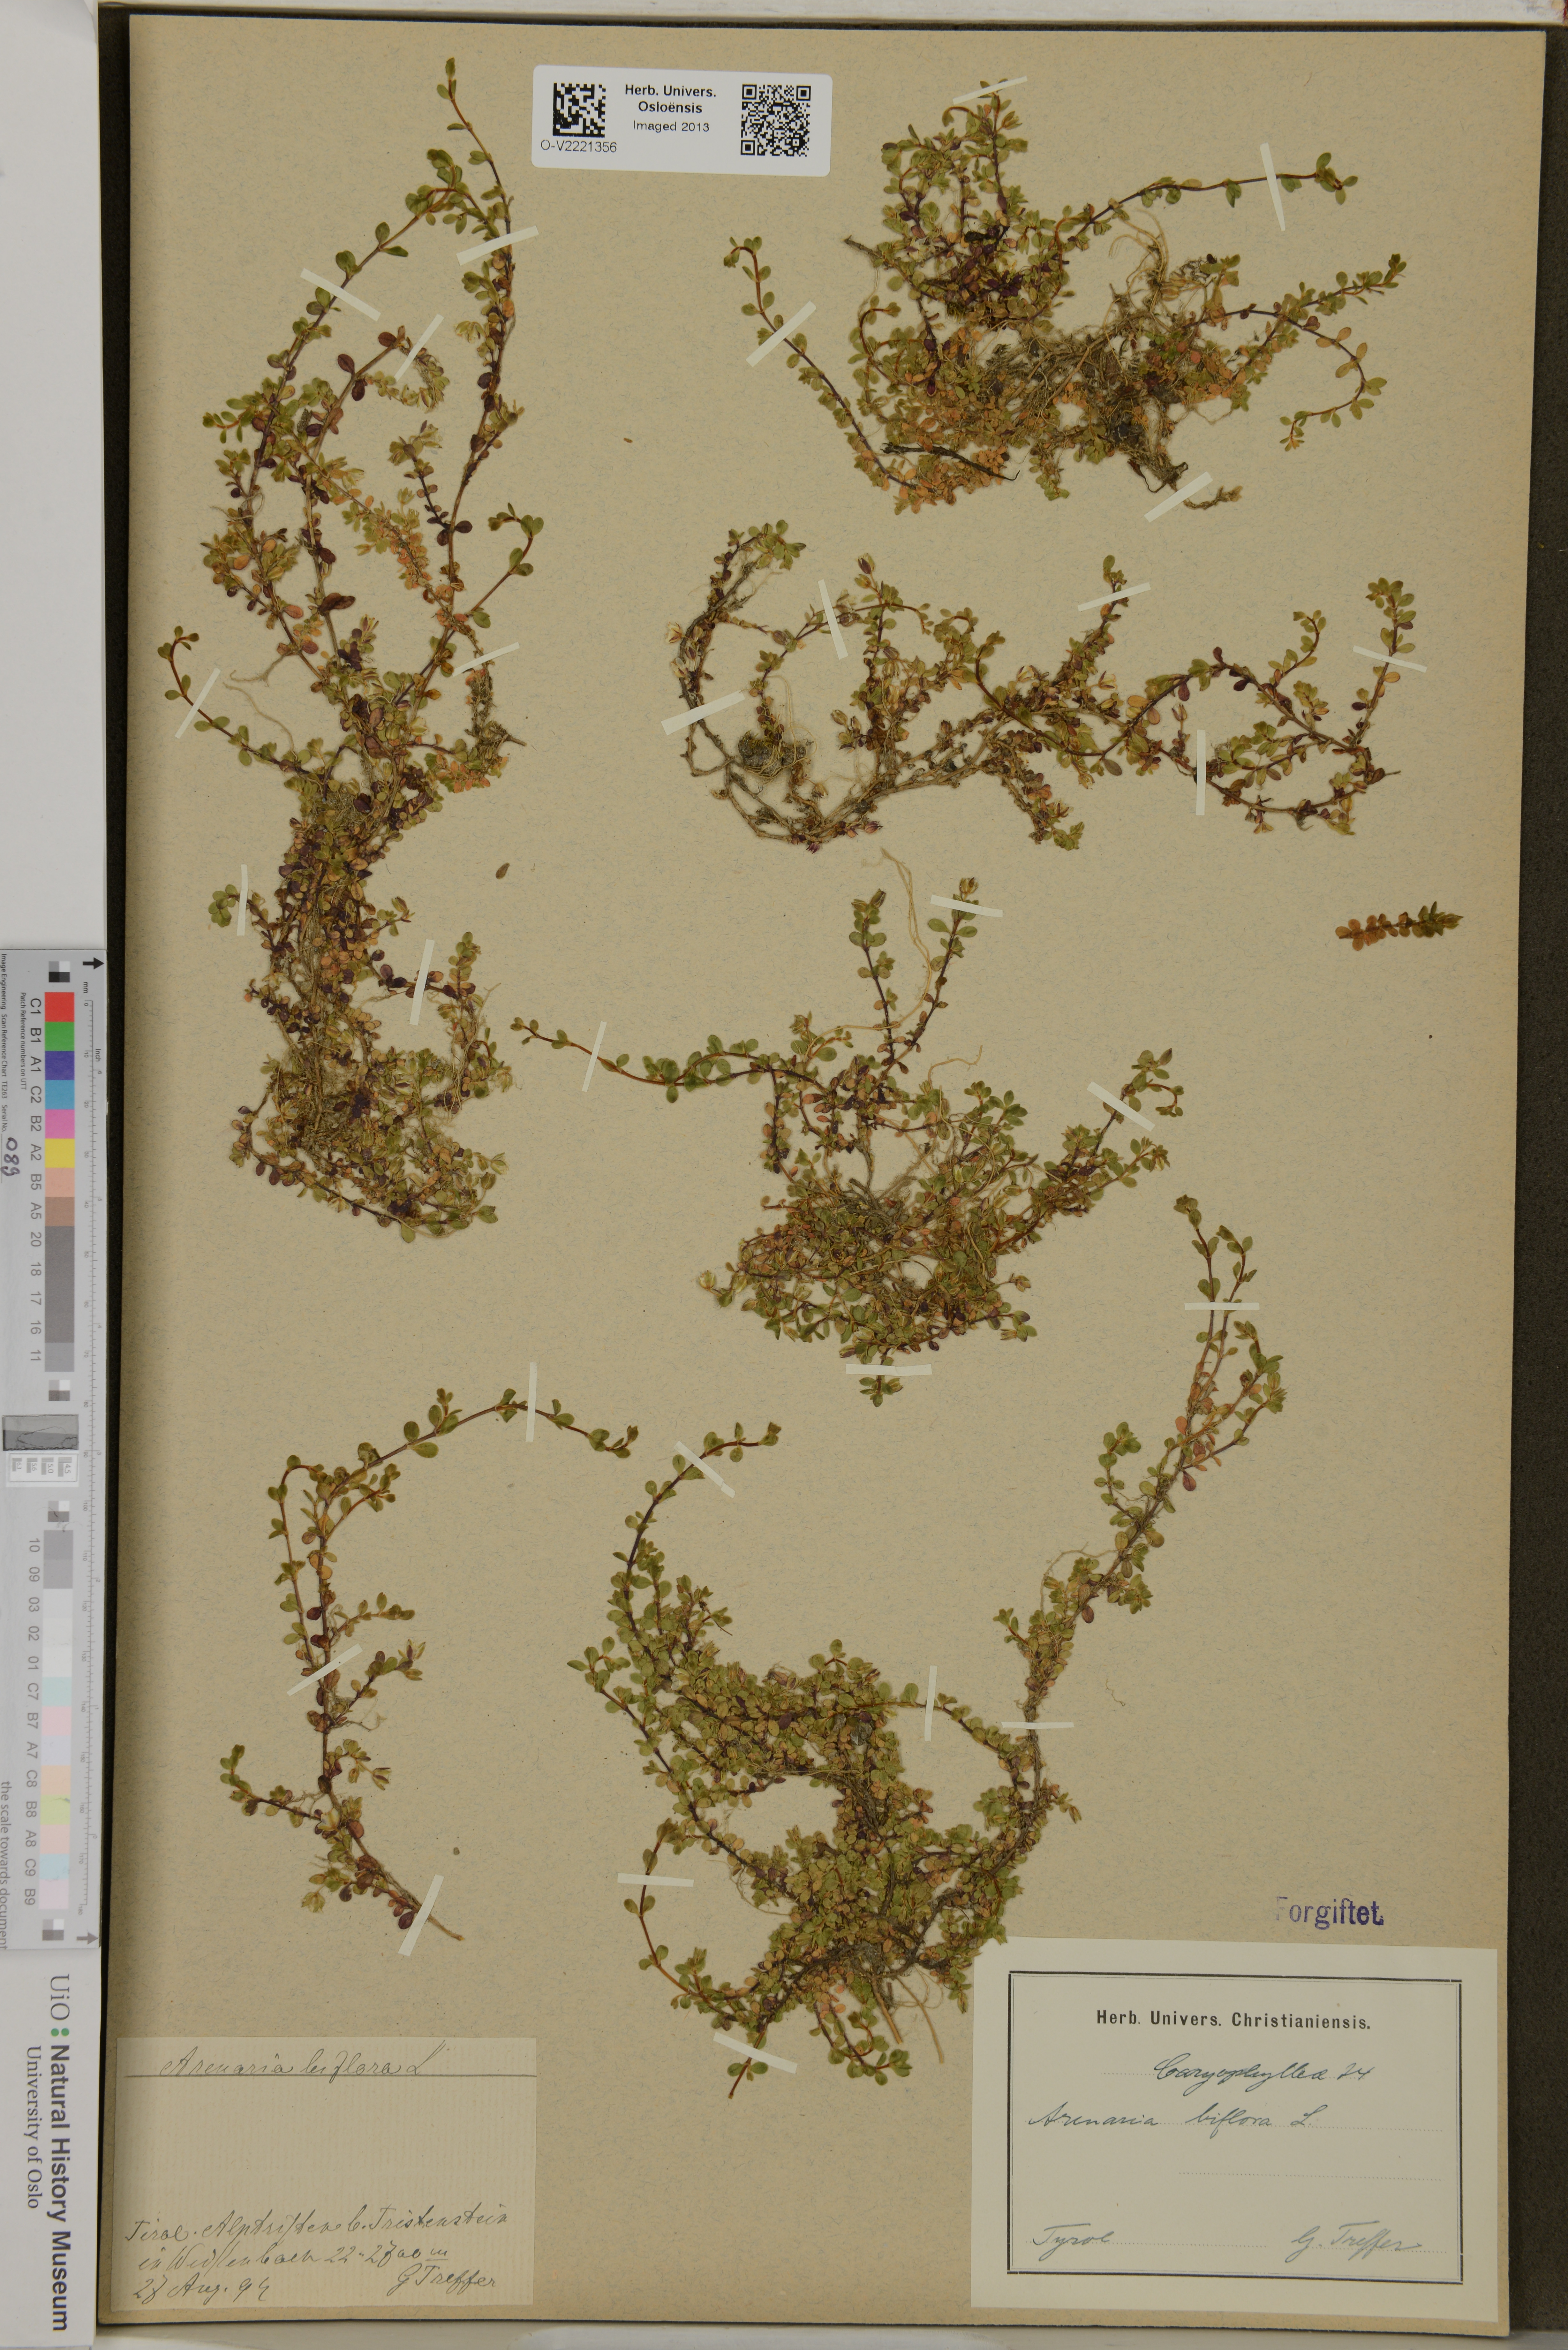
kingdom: Plantae
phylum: Tracheophyta
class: Magnoliopsida
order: Caryophyllales
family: Caryophyllaceae
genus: Arenaria
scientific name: Arenaria biflora
